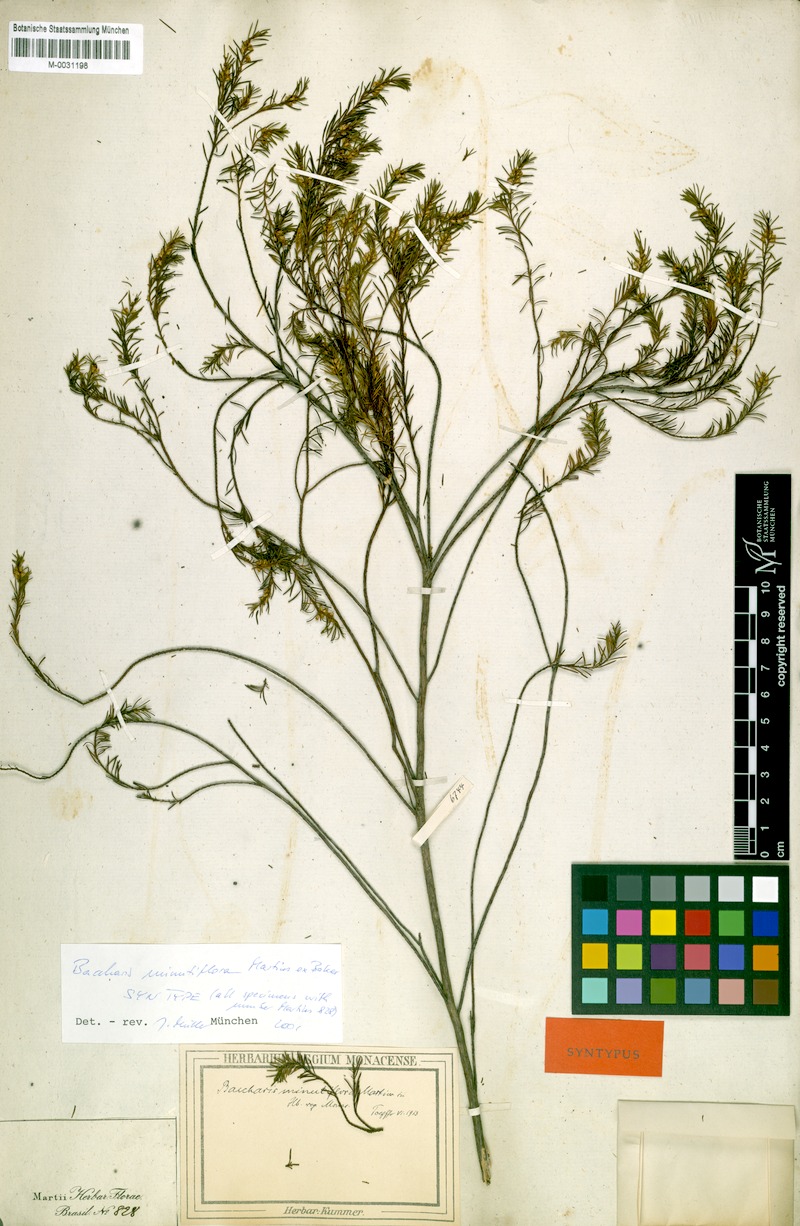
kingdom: Plantae
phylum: Tracheophyta
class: Magnoliopsida
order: Asterales
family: Asteraceae
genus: Baccharis
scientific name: Baccharis minutiflora
